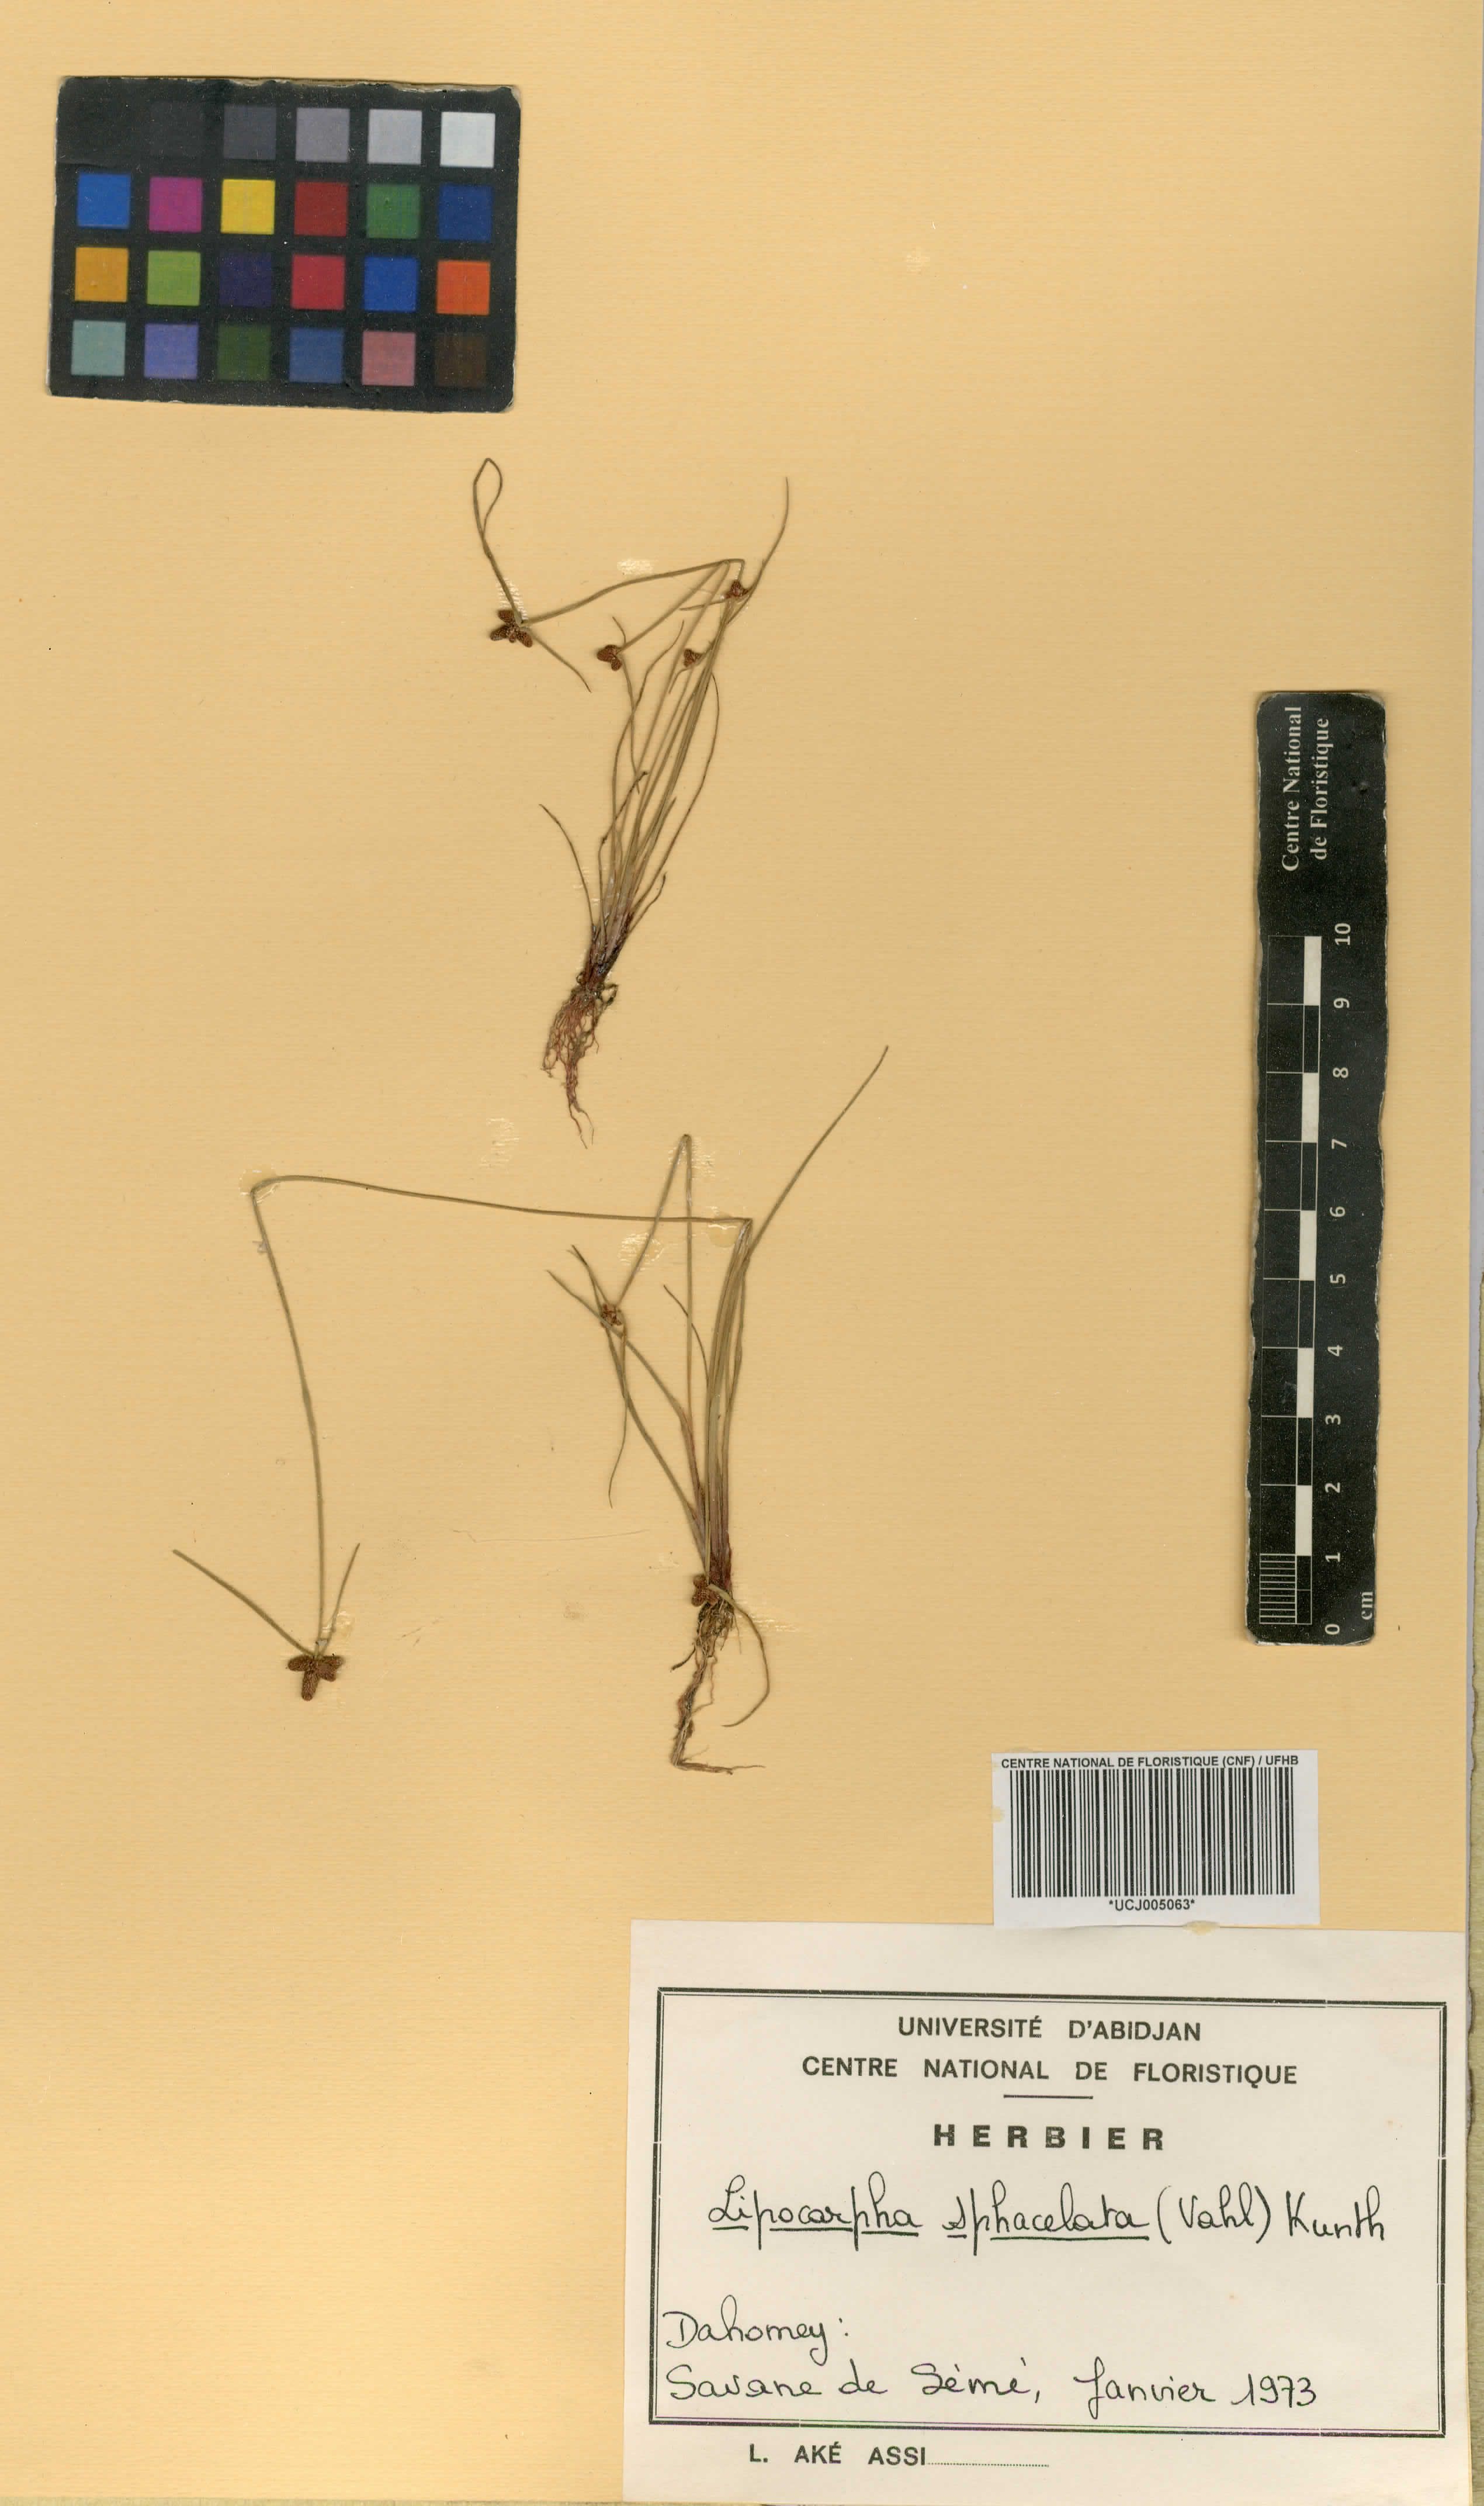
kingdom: Plantae
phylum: Tracheophyta
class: Liliopsida
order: Poales
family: Cyperaceae
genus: Cyperus
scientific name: Cyperus ceylanicus
